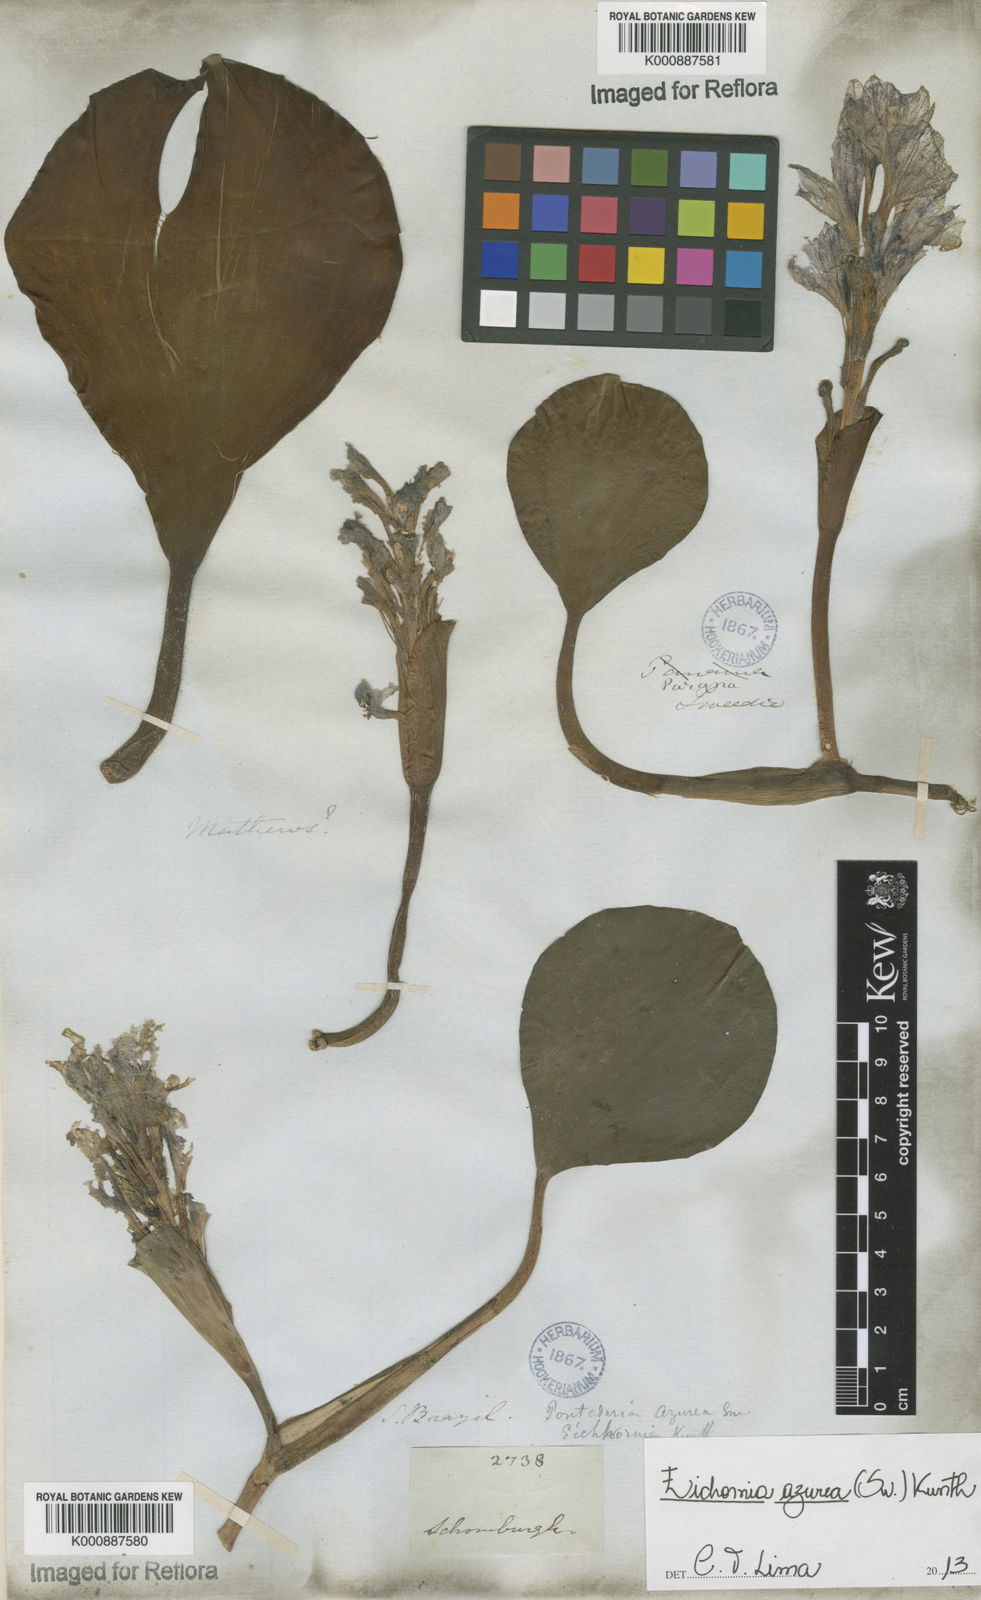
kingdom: Plantae
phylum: Tracheophyta
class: Liliopsida
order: Commelinales
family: Pontederiaceae
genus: Pontederia
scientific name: Pontederia azurea
